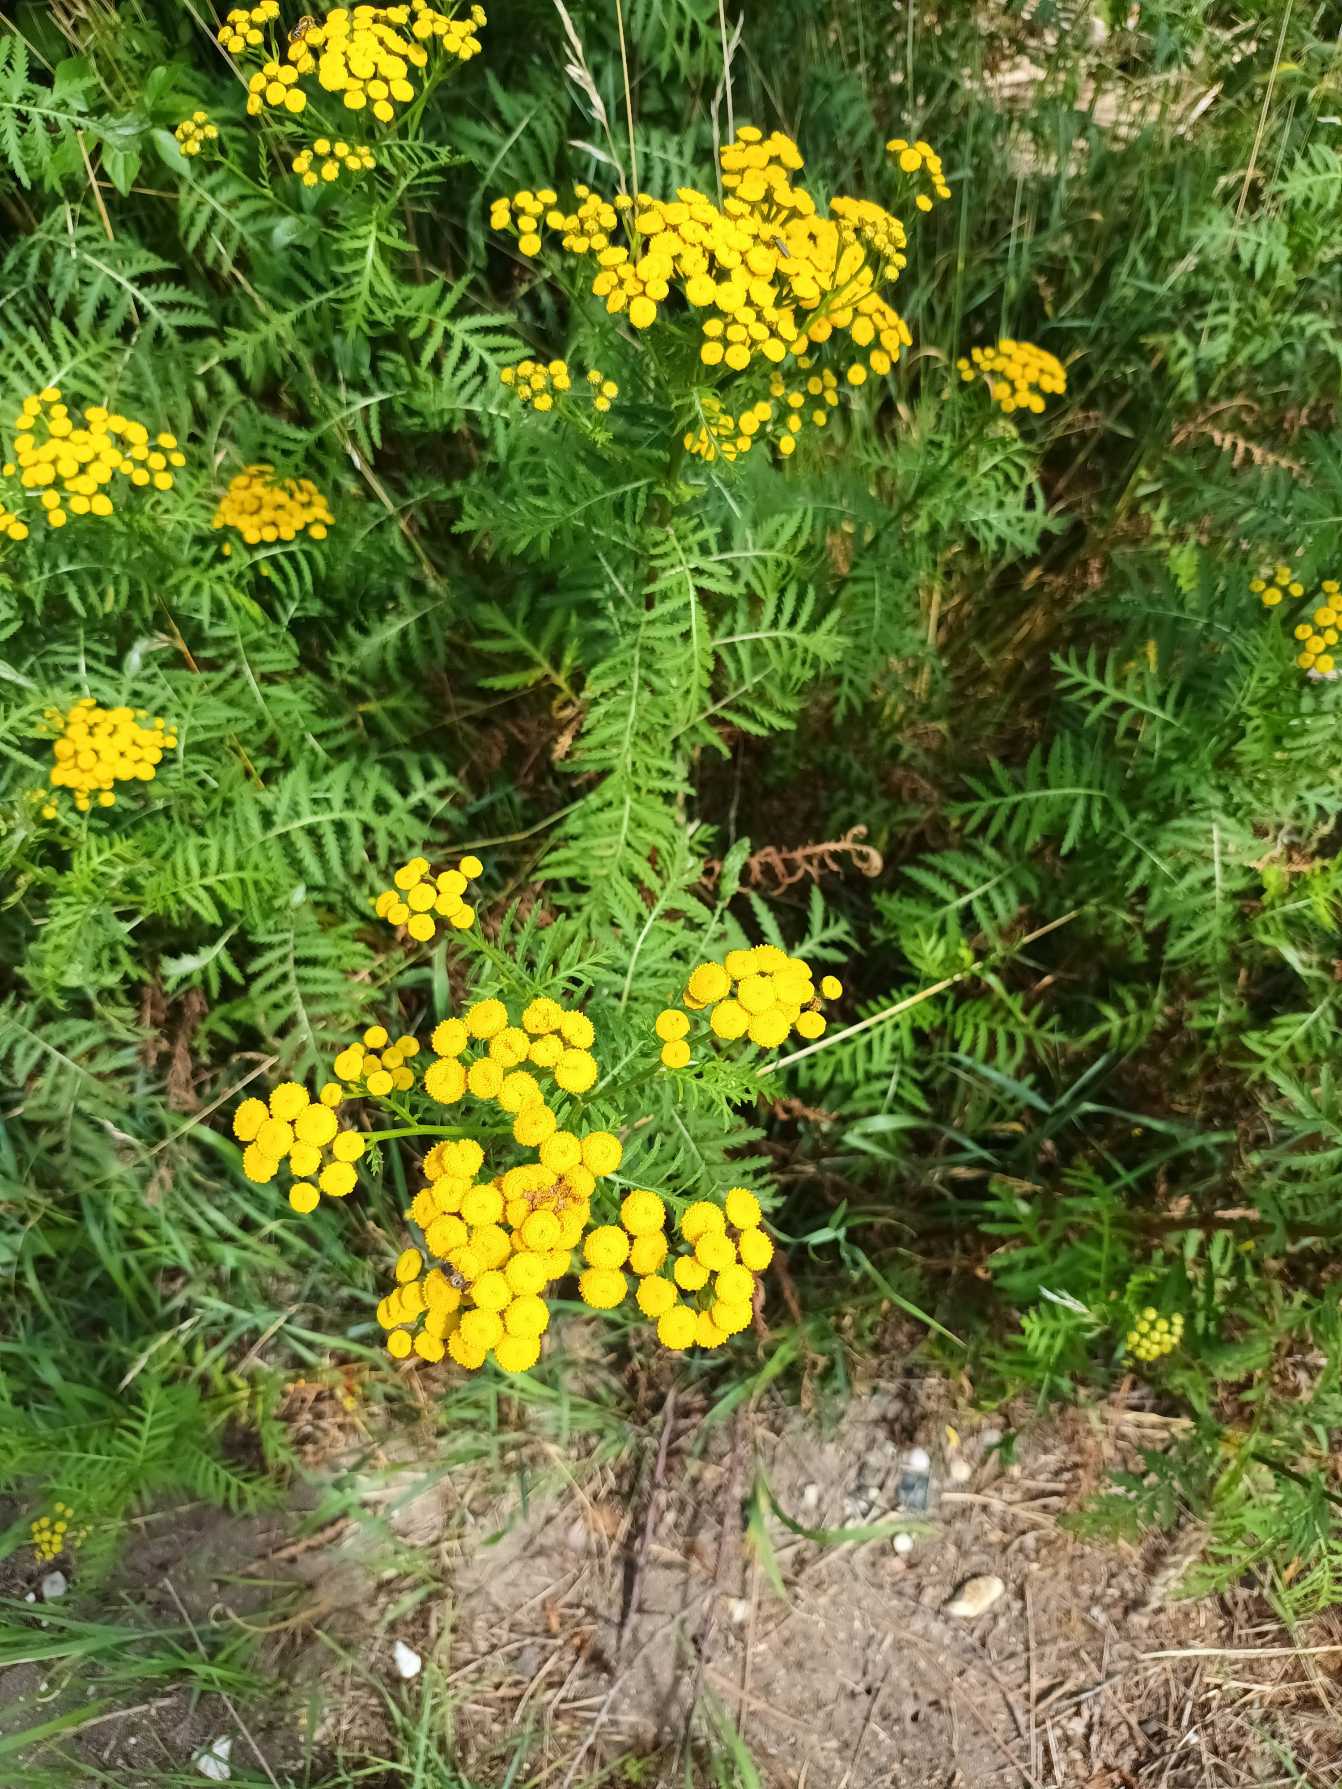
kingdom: Plantae
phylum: Tracheophyta
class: Magnoliopsida
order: Asterales
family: Asteraceae
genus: Tanacetum
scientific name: Tanacetum vulgare
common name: Rejnfan
